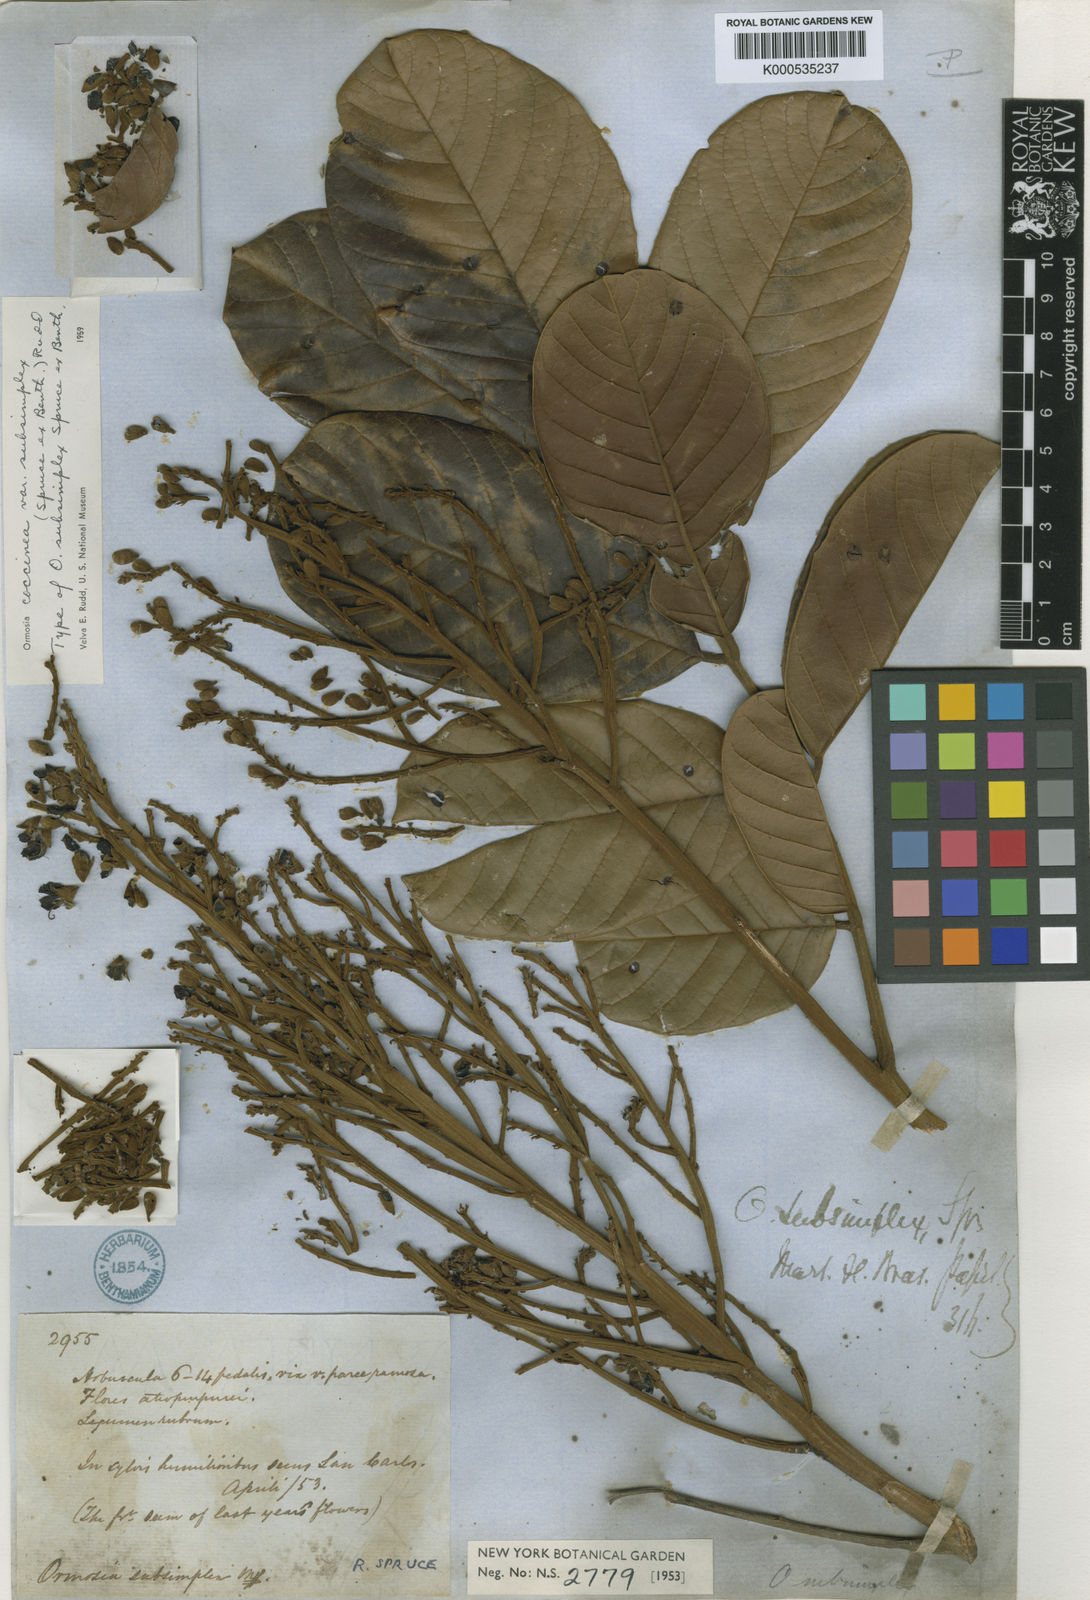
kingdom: Plantae
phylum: Tracheophyta
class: Magnoliopsida
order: Fabales
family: Fabaceae
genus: Ormosia
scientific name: Ormosia subsimplex
